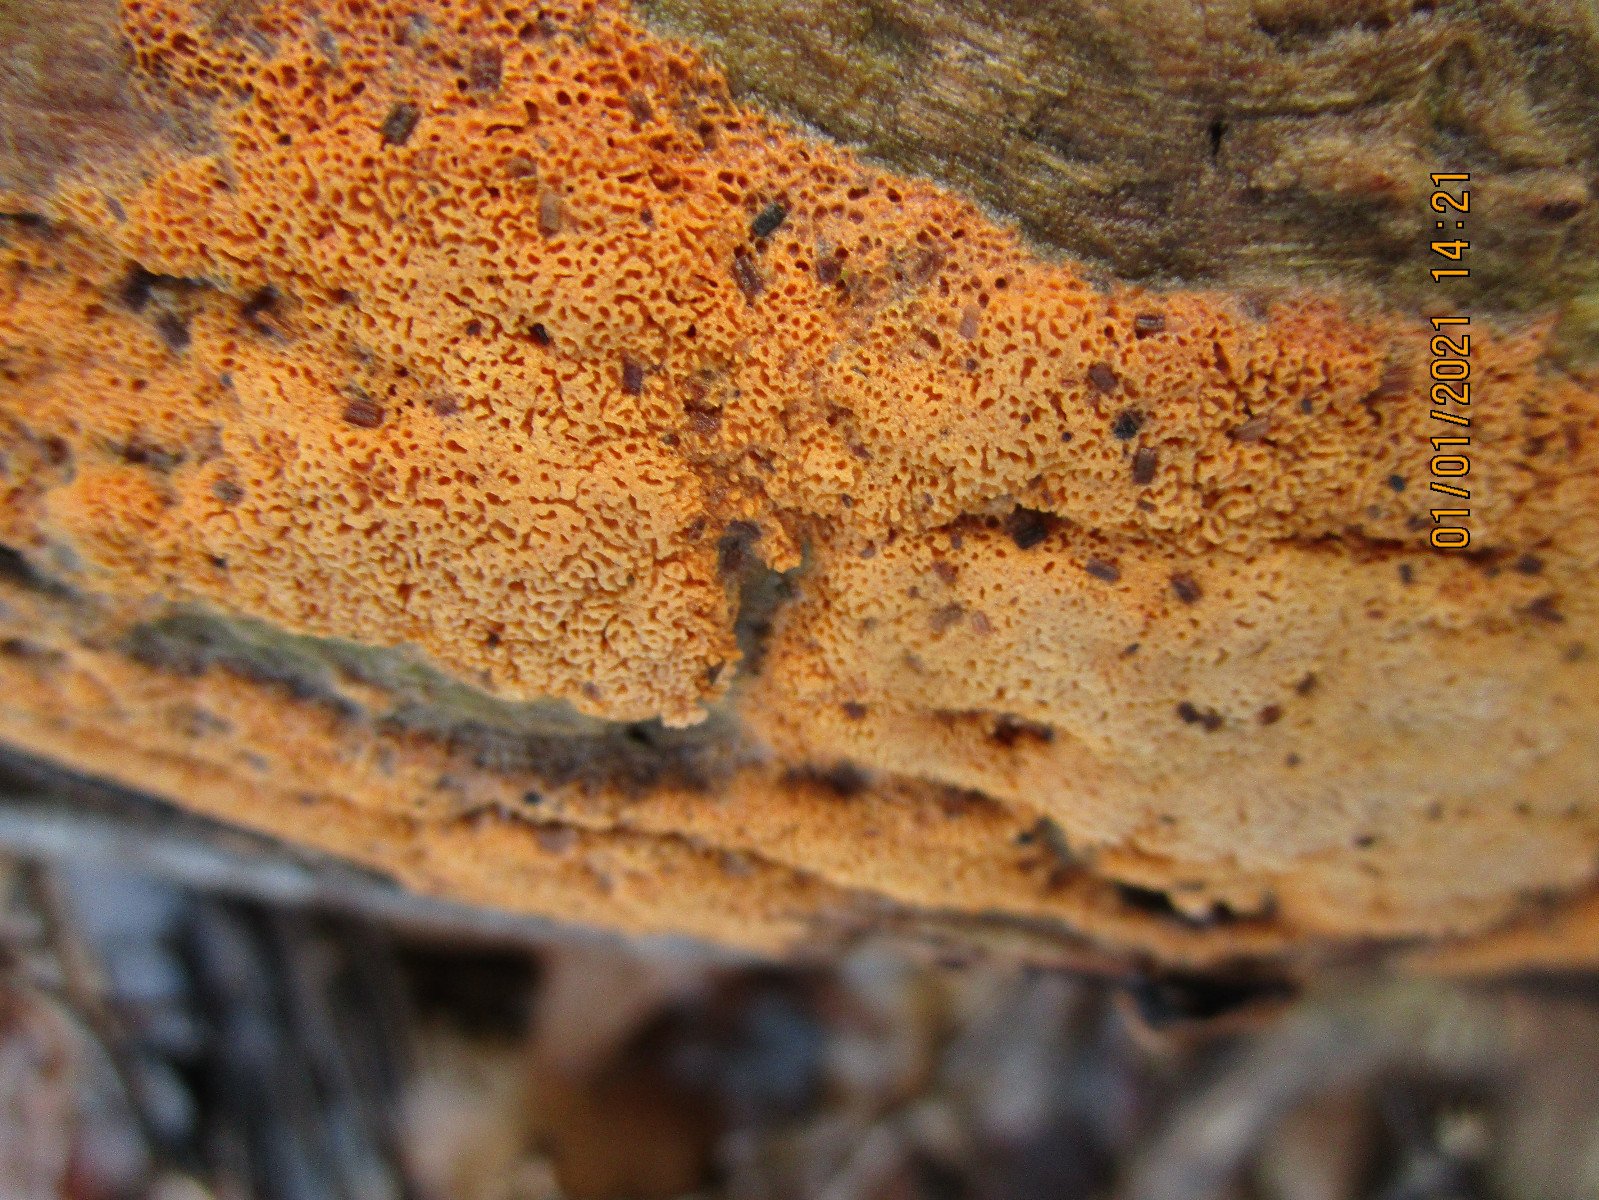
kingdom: Fungi
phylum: Basidiomycota
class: Agaricomycetes
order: Polyporales
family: Irpicaceae
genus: Ceriporia
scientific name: Ceriporia
